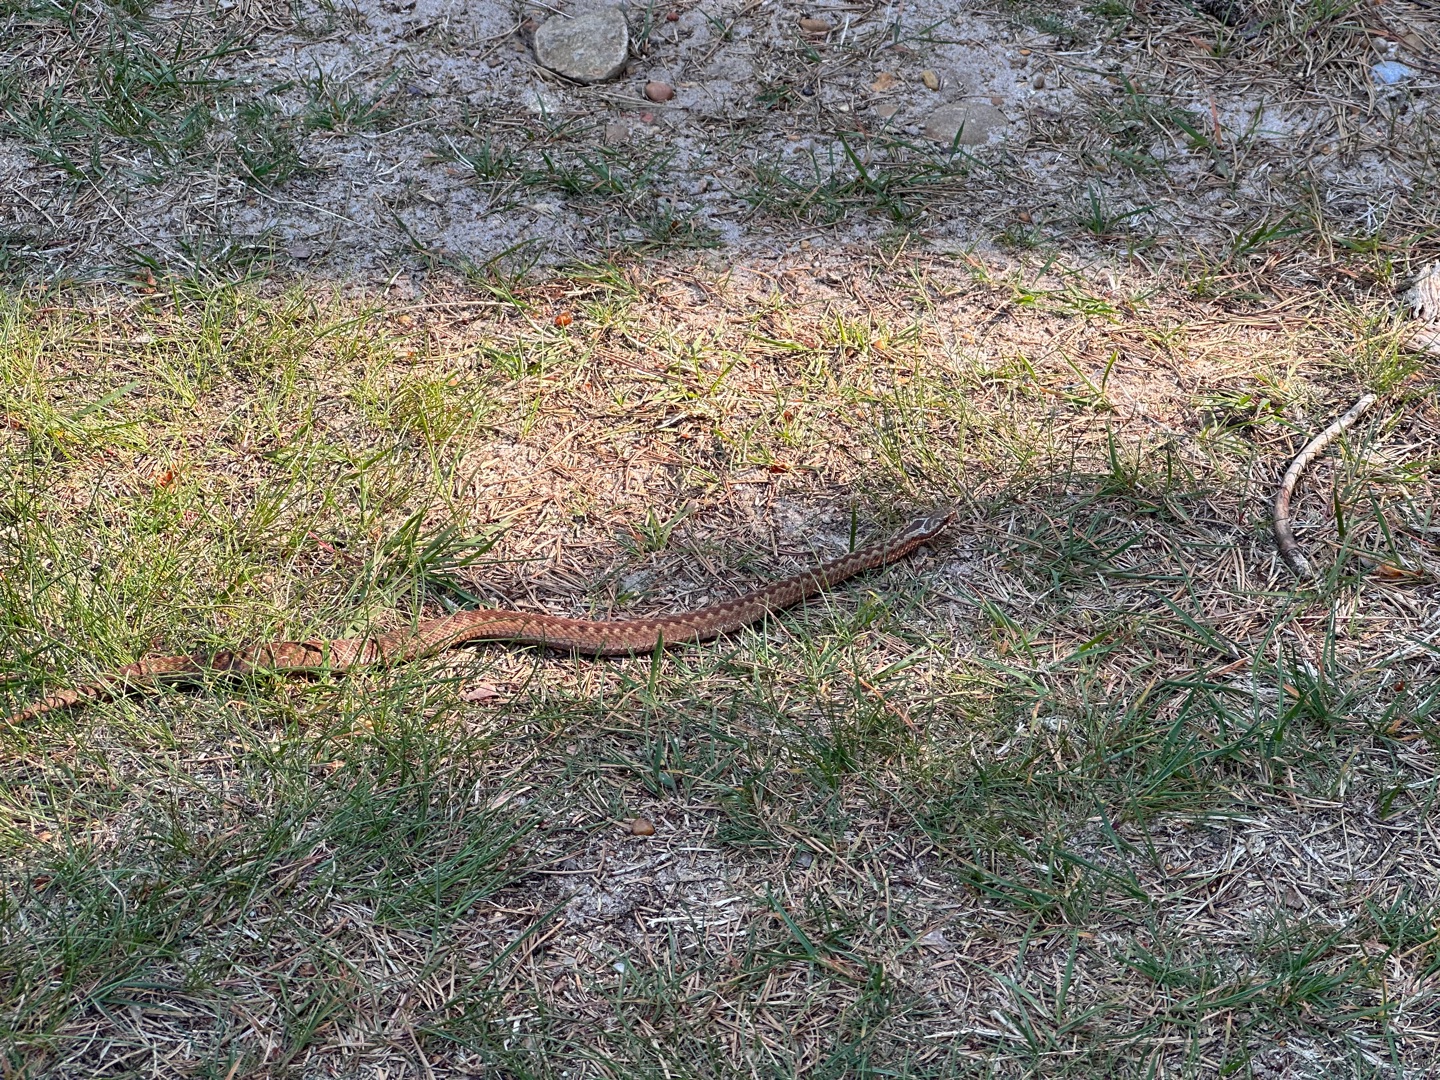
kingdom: Animalia
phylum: Chordata
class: Squamata
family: Viperidae
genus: Vipera
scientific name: Vipera berus
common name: Hugorm
